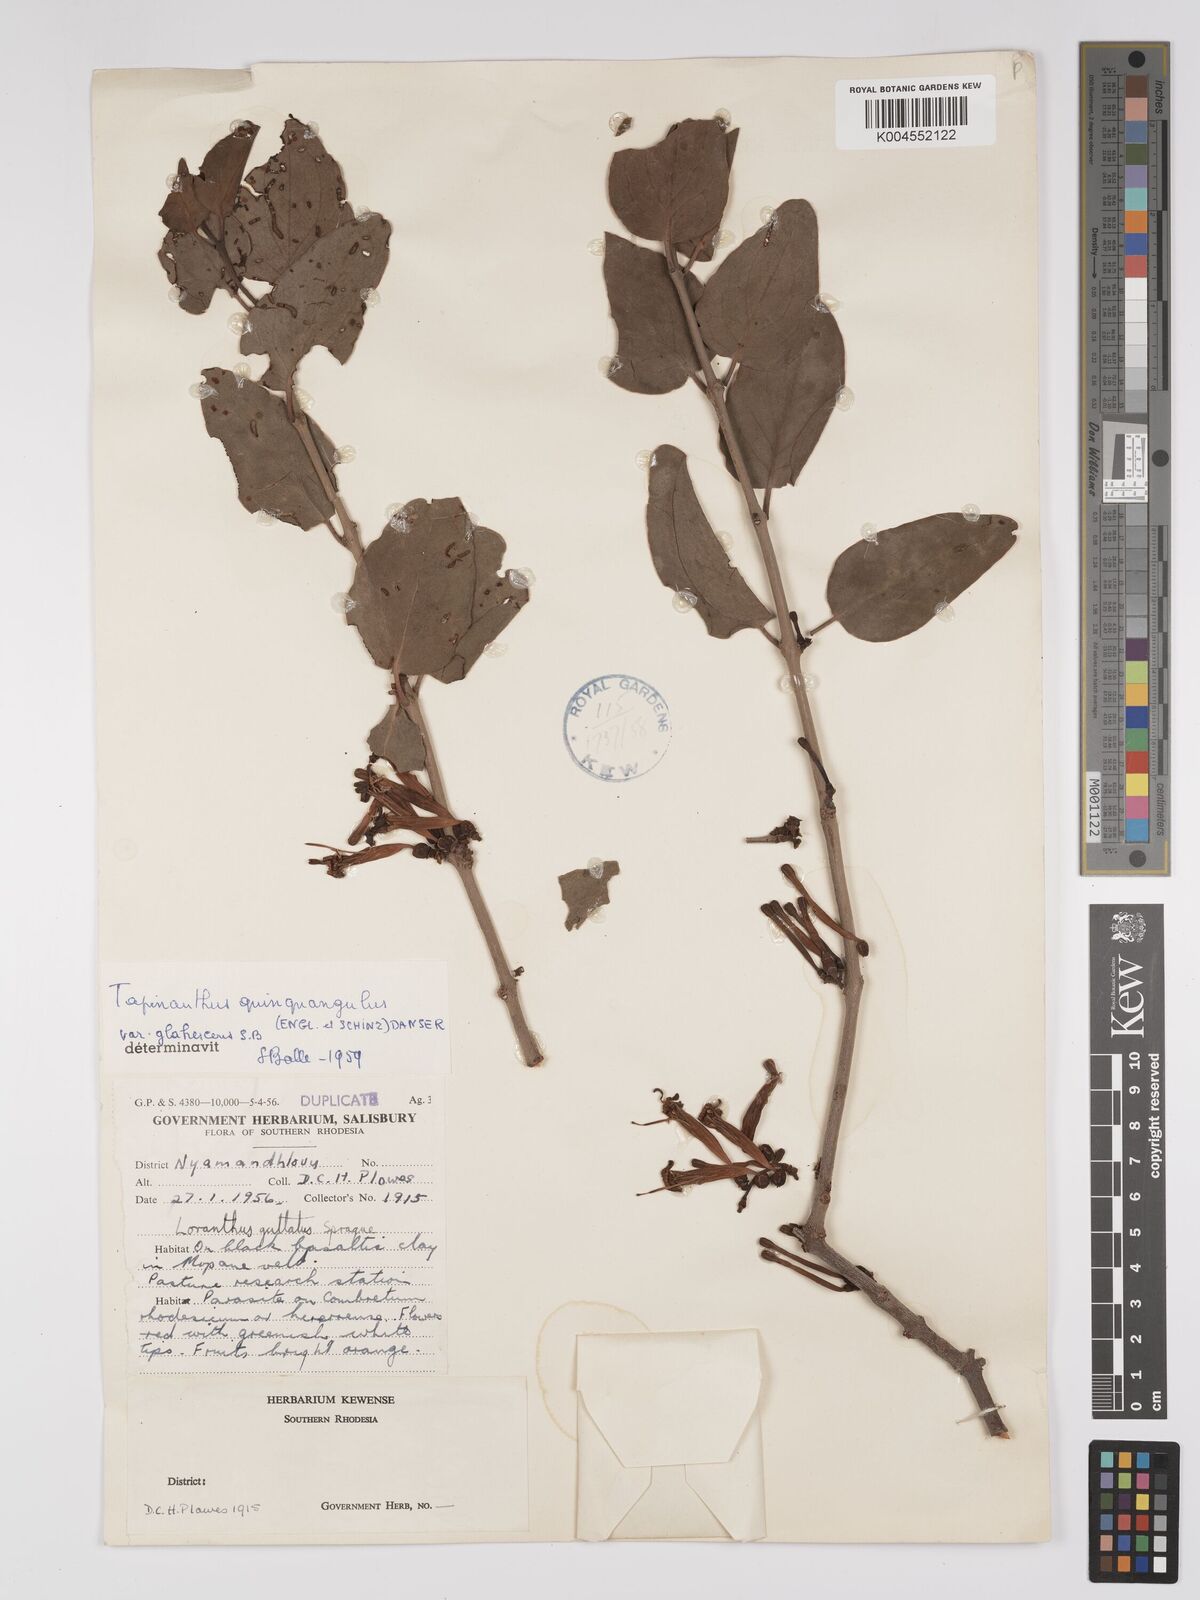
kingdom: Plantae
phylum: Tracheophyta
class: Magnoliopsida
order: Santalales
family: Loranthaceae
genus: Tapinanthus
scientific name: Tapinanthus forbesii
